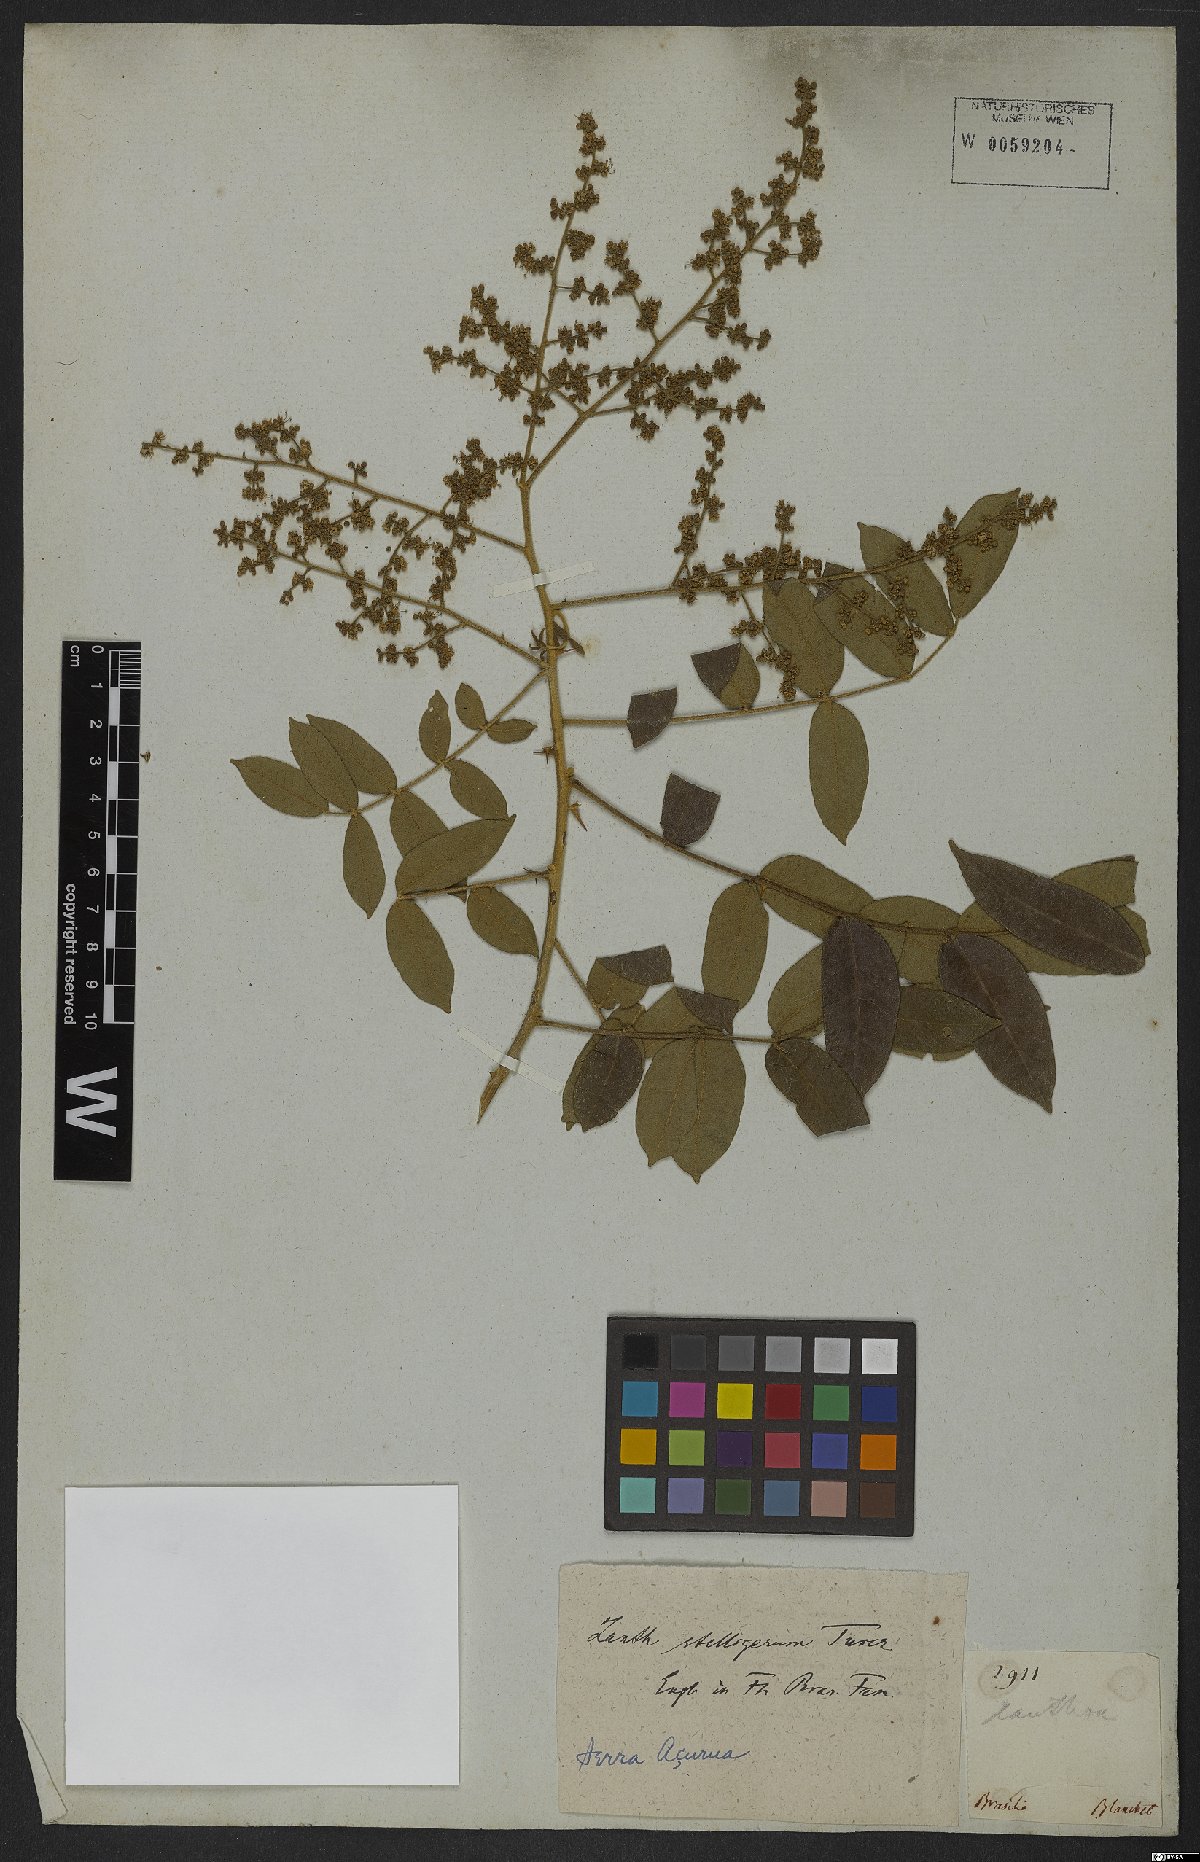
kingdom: Plantae
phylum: Tracheophyta
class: Magnoliopsida
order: Sapindales
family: Rutaceae
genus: Zanthoxylum
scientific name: Zanthoxylum stelligerum
